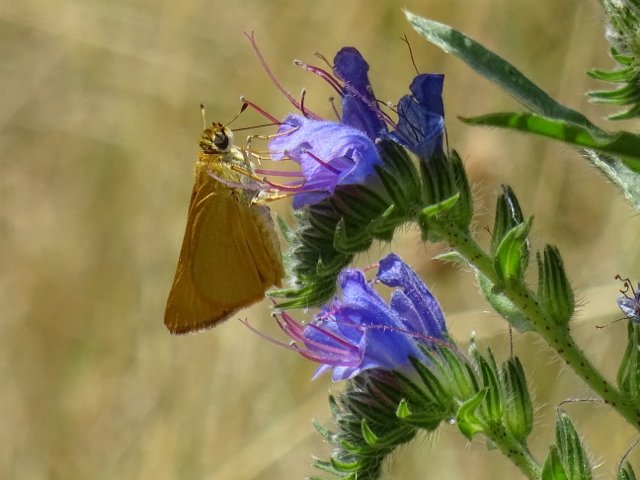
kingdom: Animalia
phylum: Arthropoda
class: Insecta
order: Lepidoptera
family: Hesperiidae
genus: Atrytone
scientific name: Atrytone delaware
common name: Delaware Skipper
